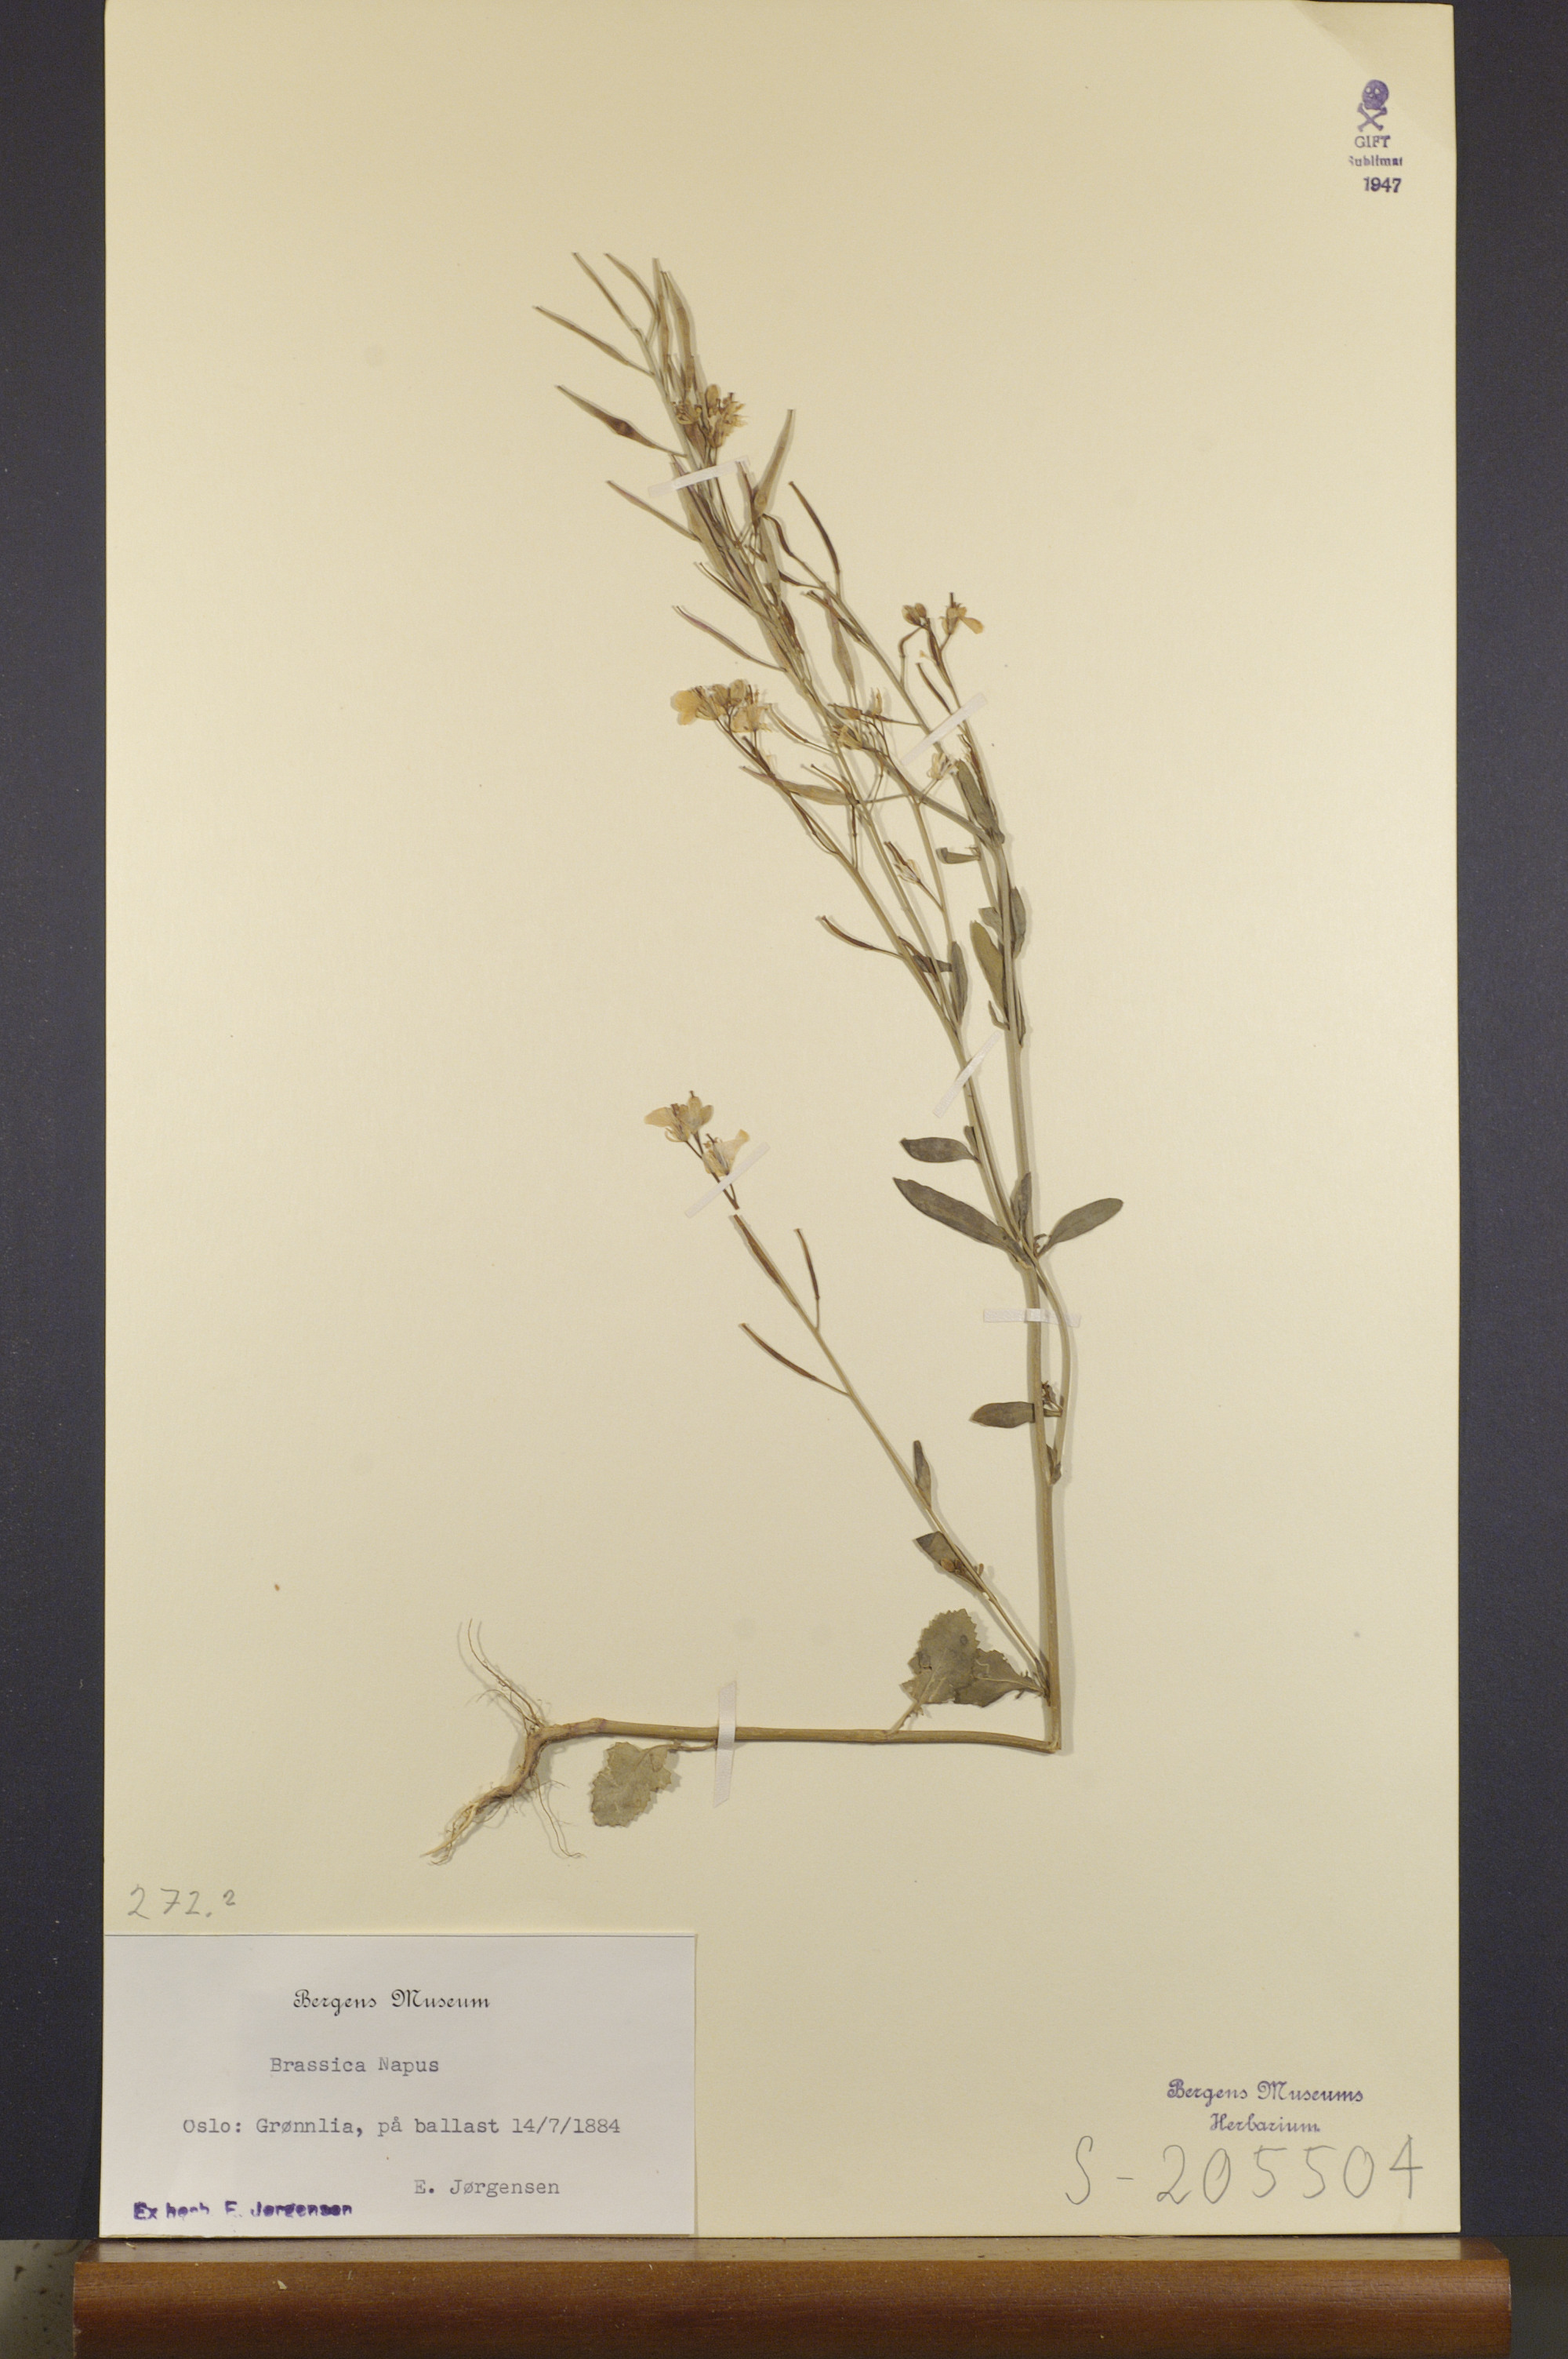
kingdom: Plantae
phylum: Tracheophyta
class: Magnoliopsida
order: Brassicales
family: Brassicaceae
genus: Brassica
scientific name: Brassica napus
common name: Rape
